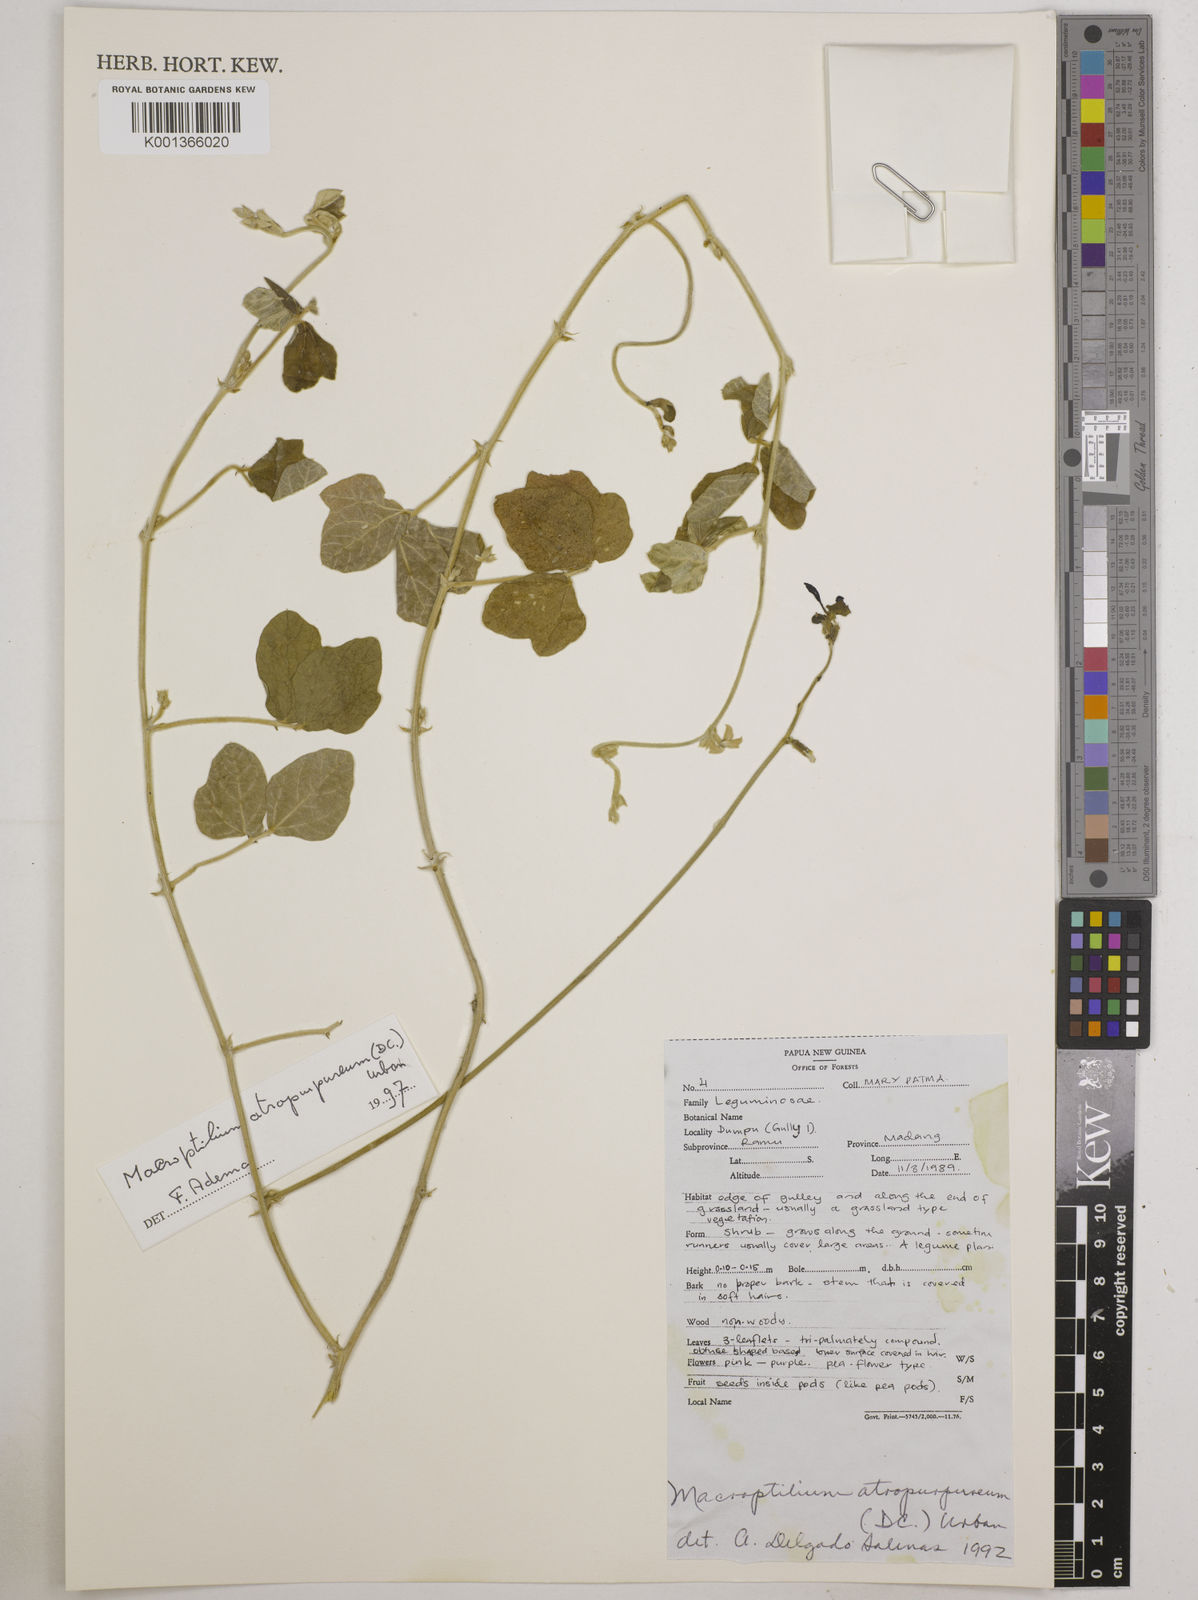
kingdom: Plantae
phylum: Tracheophyta
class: Magnoliopsida
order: Fabales
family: Fabaceae
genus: Macroptilium
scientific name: Macroptilium atropurpureum
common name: Purple bushbean
